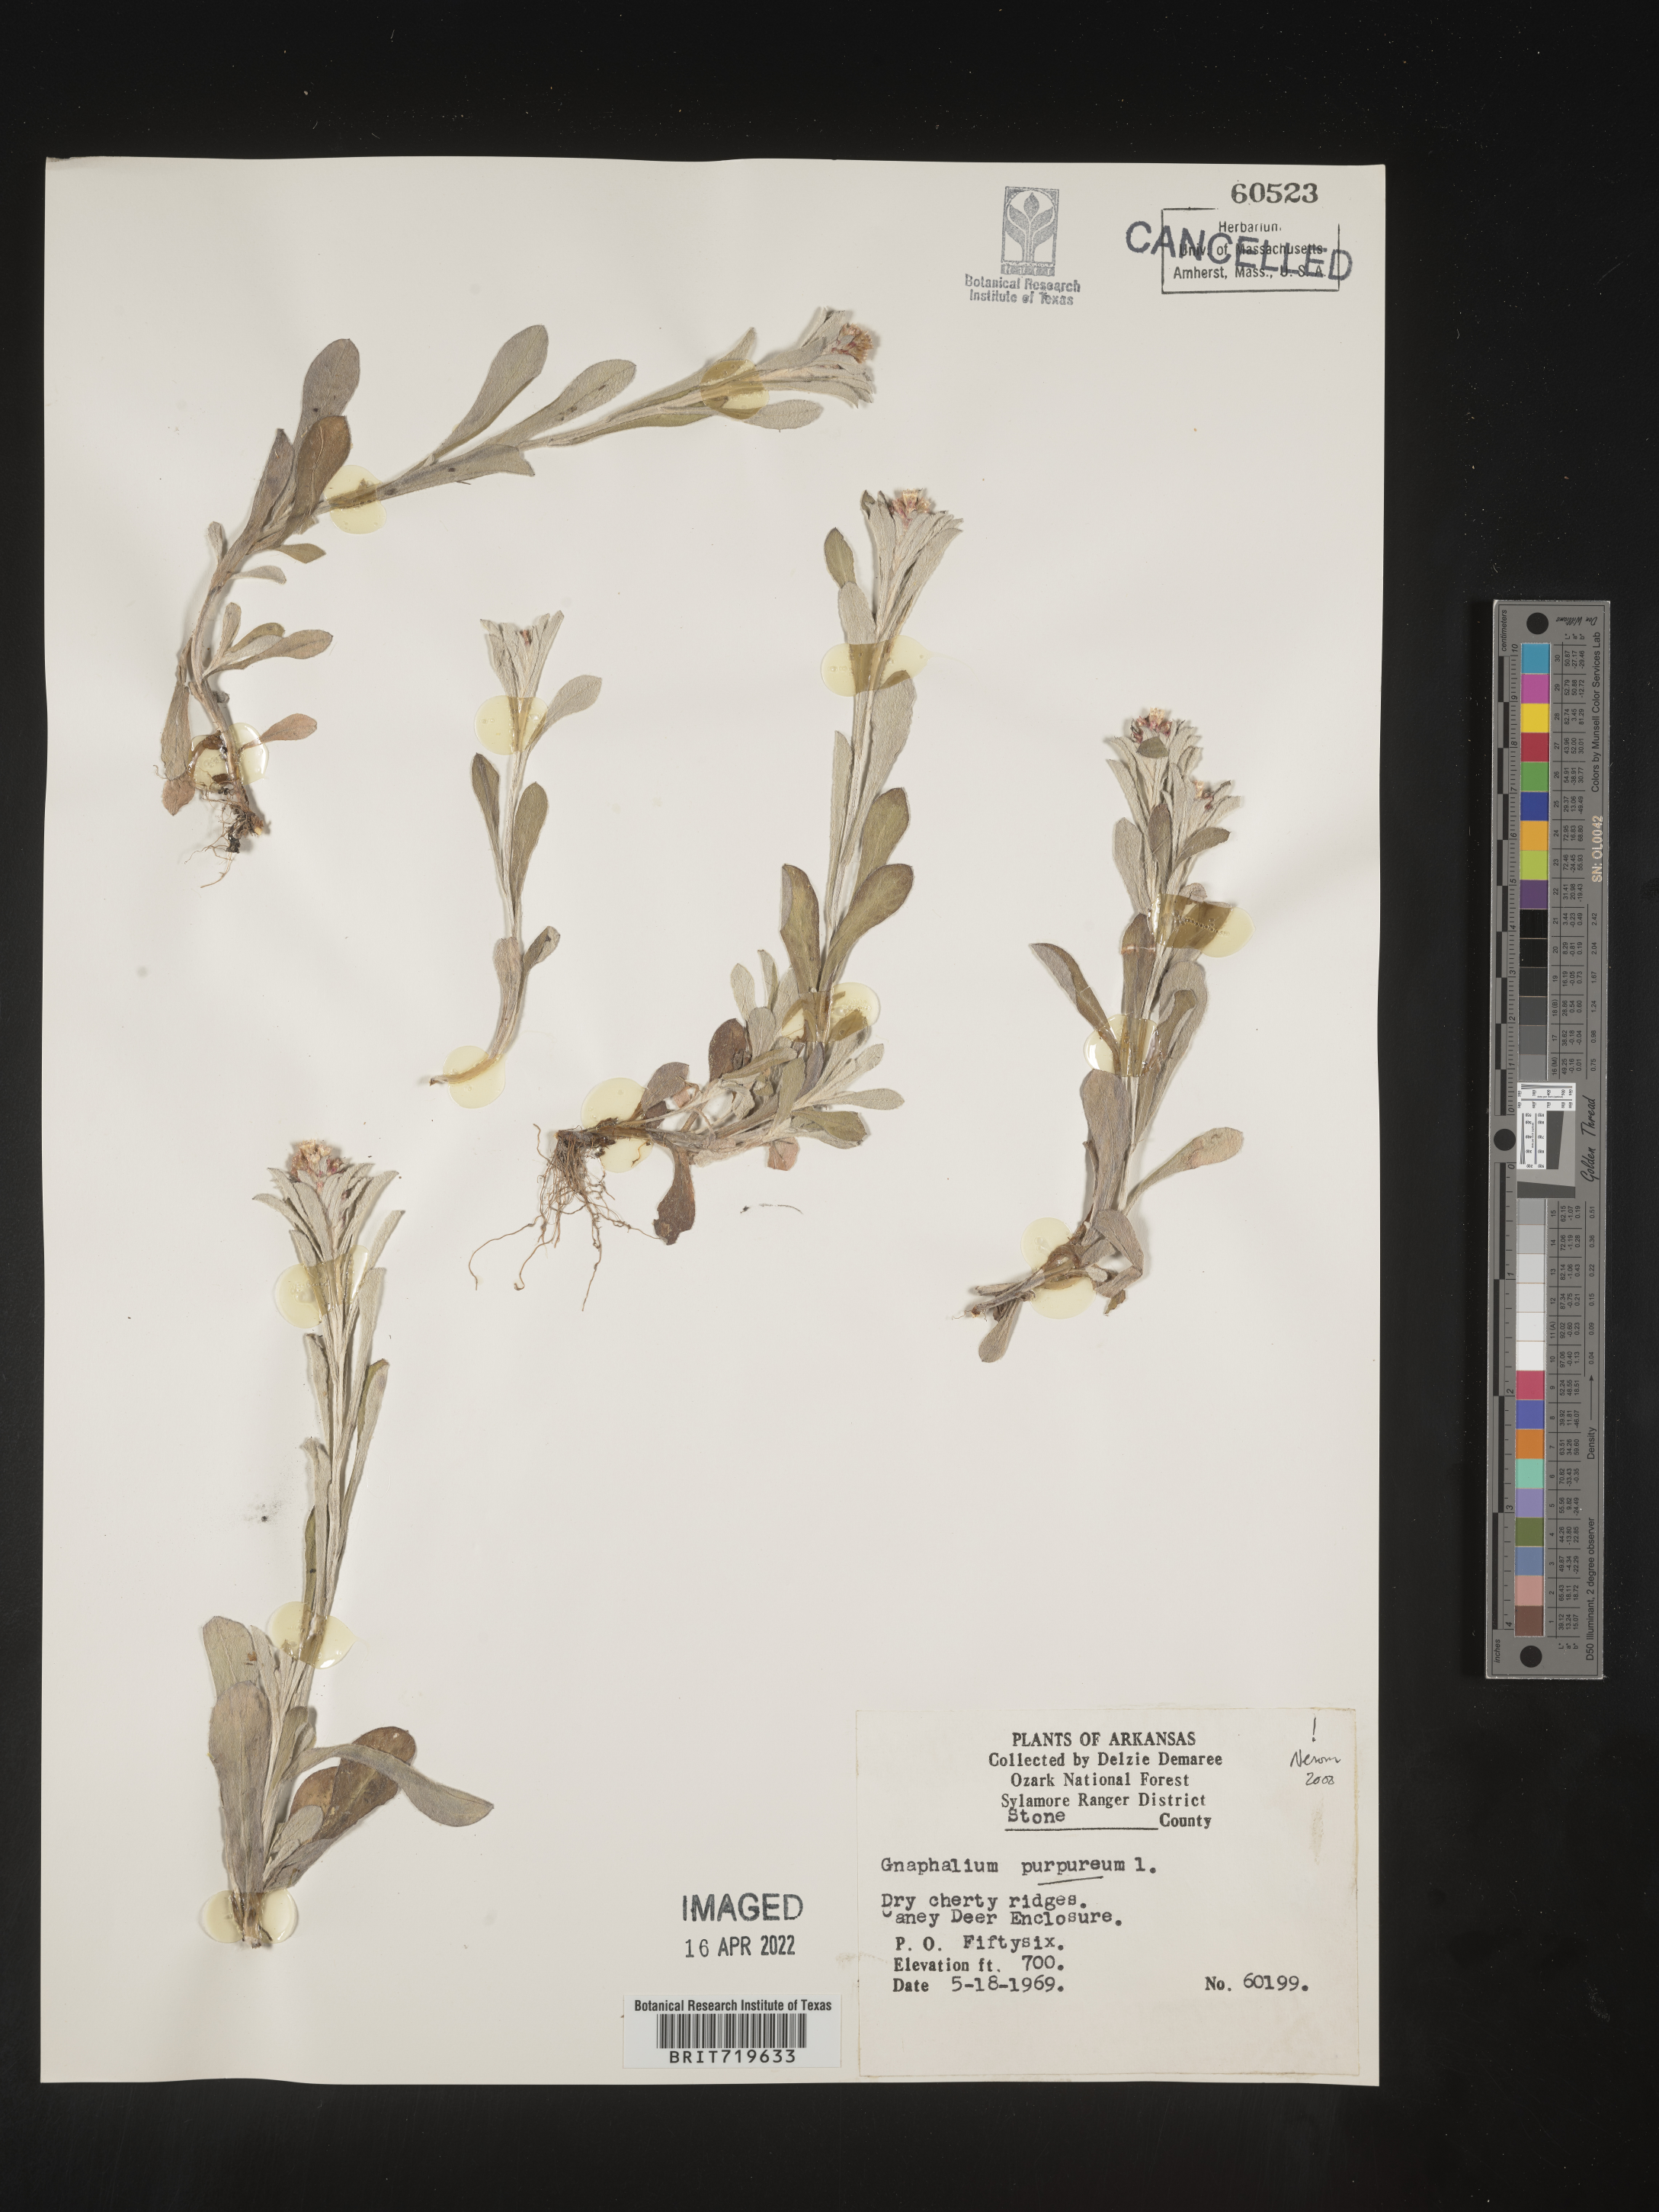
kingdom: Plantae
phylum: Tracheophyta
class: Magnoliopsida
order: Asterales
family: Asteraceae
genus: Gamochaeta
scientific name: Gamochaeta purpurea
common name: Purple cudweed
